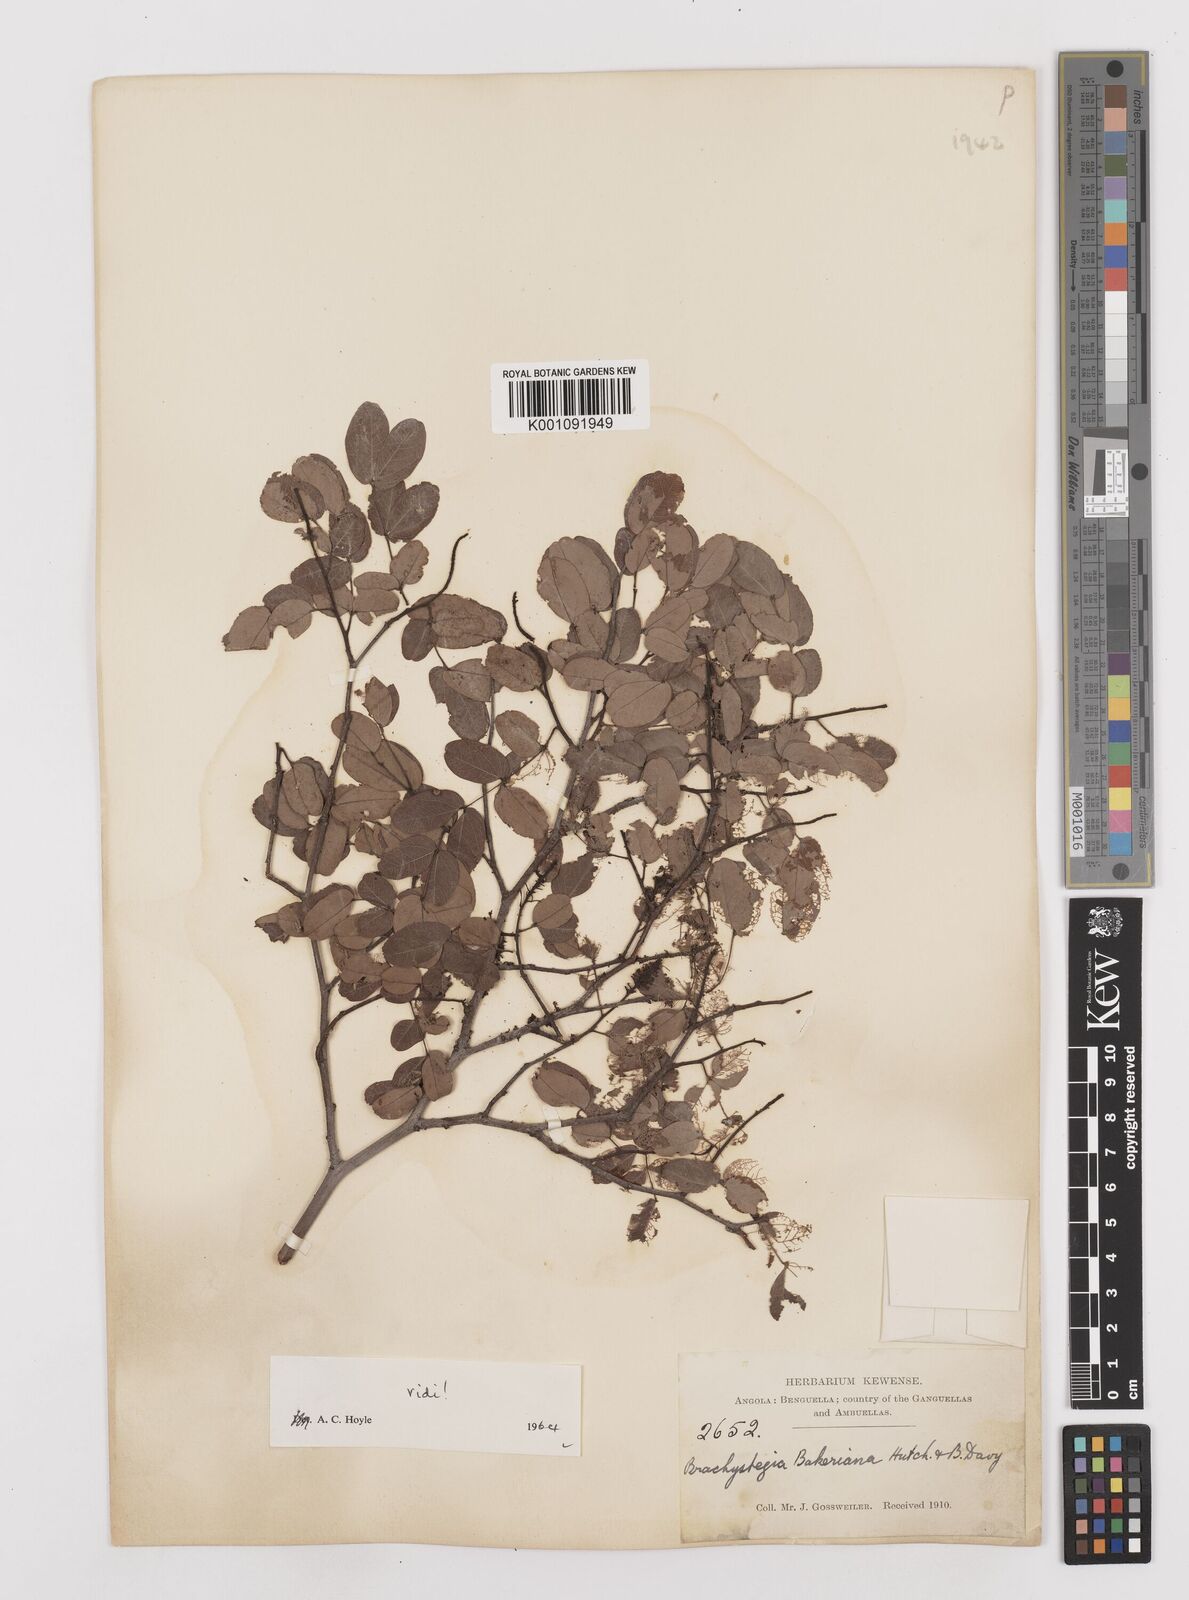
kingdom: Plantae
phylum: Tracheophyta
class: Magnoliopsida
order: Fabales
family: Fabaceae
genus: Brachystegia
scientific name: Brachystegia bakeriana
